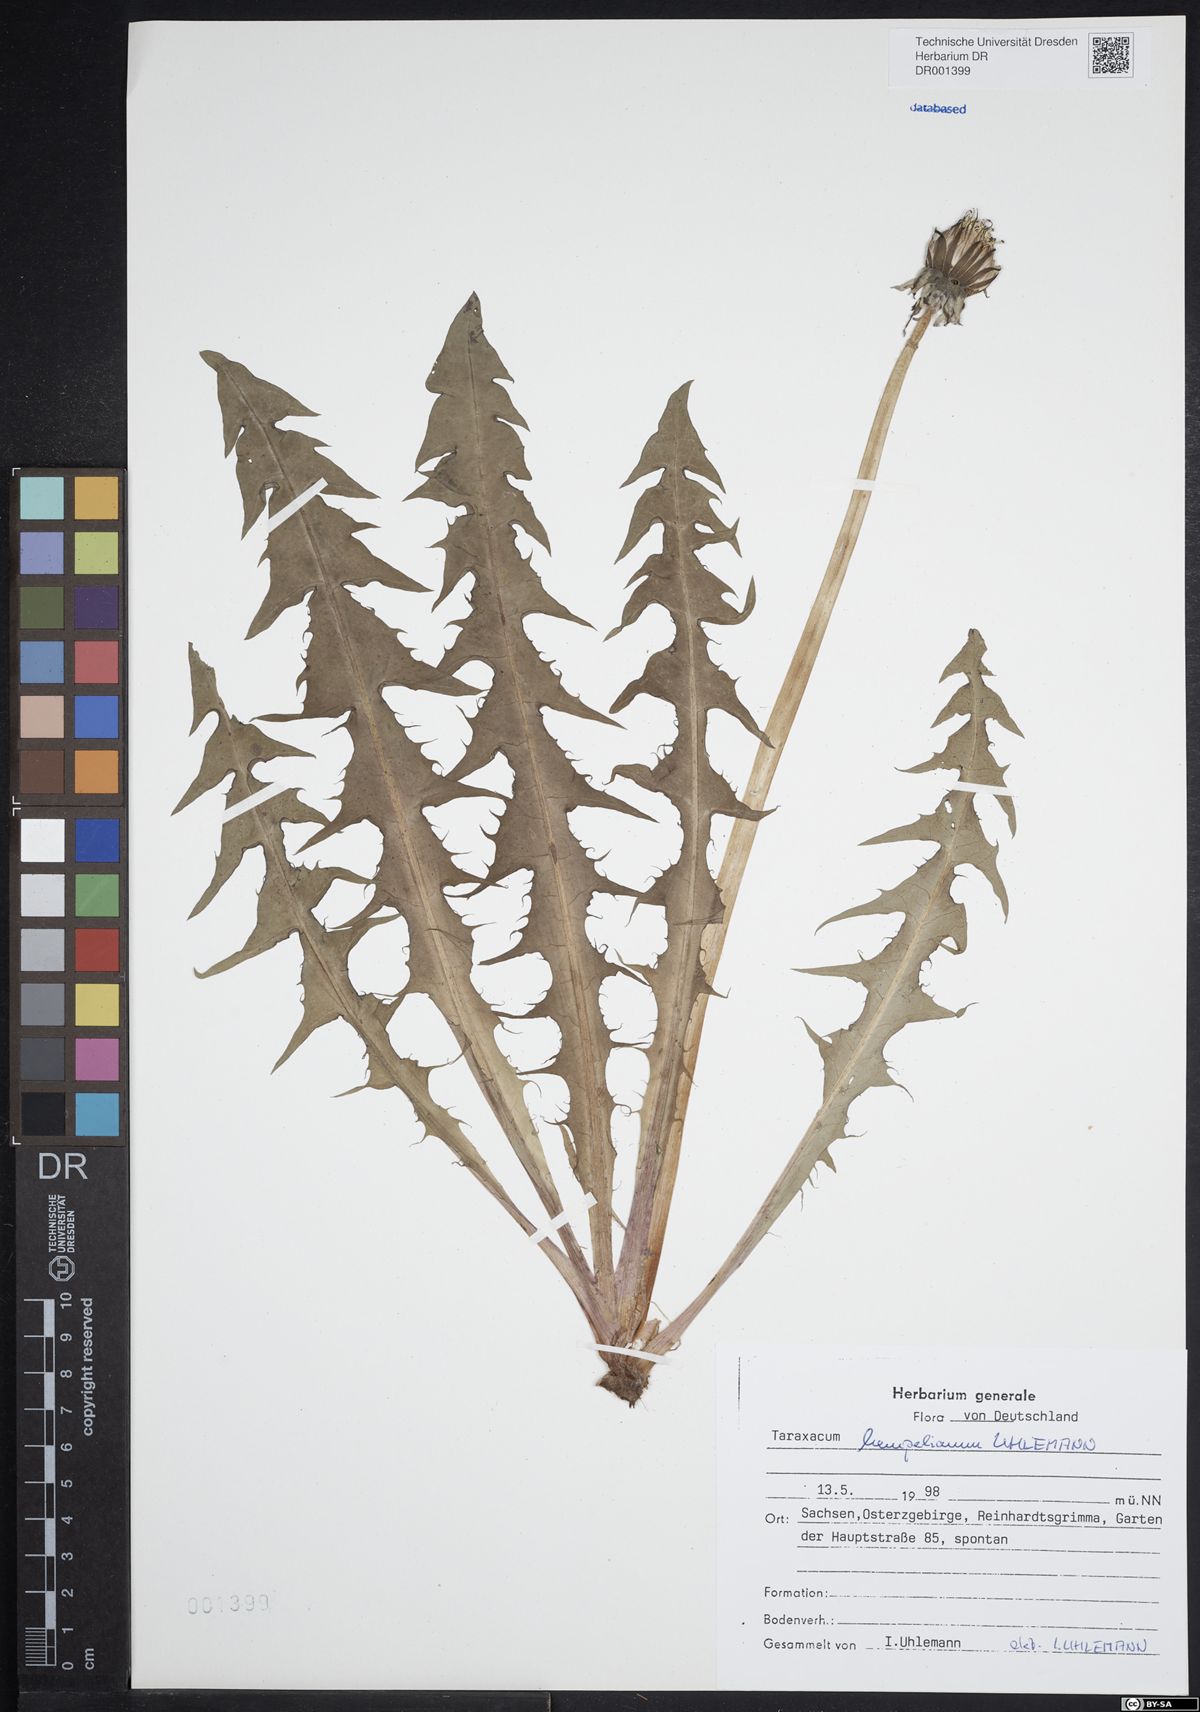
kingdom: Plantae
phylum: Tracheophyta
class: Magnoliopsida
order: Asterales
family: Asteraceae
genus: Taraxacum
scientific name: Taraxacum hempelianum
